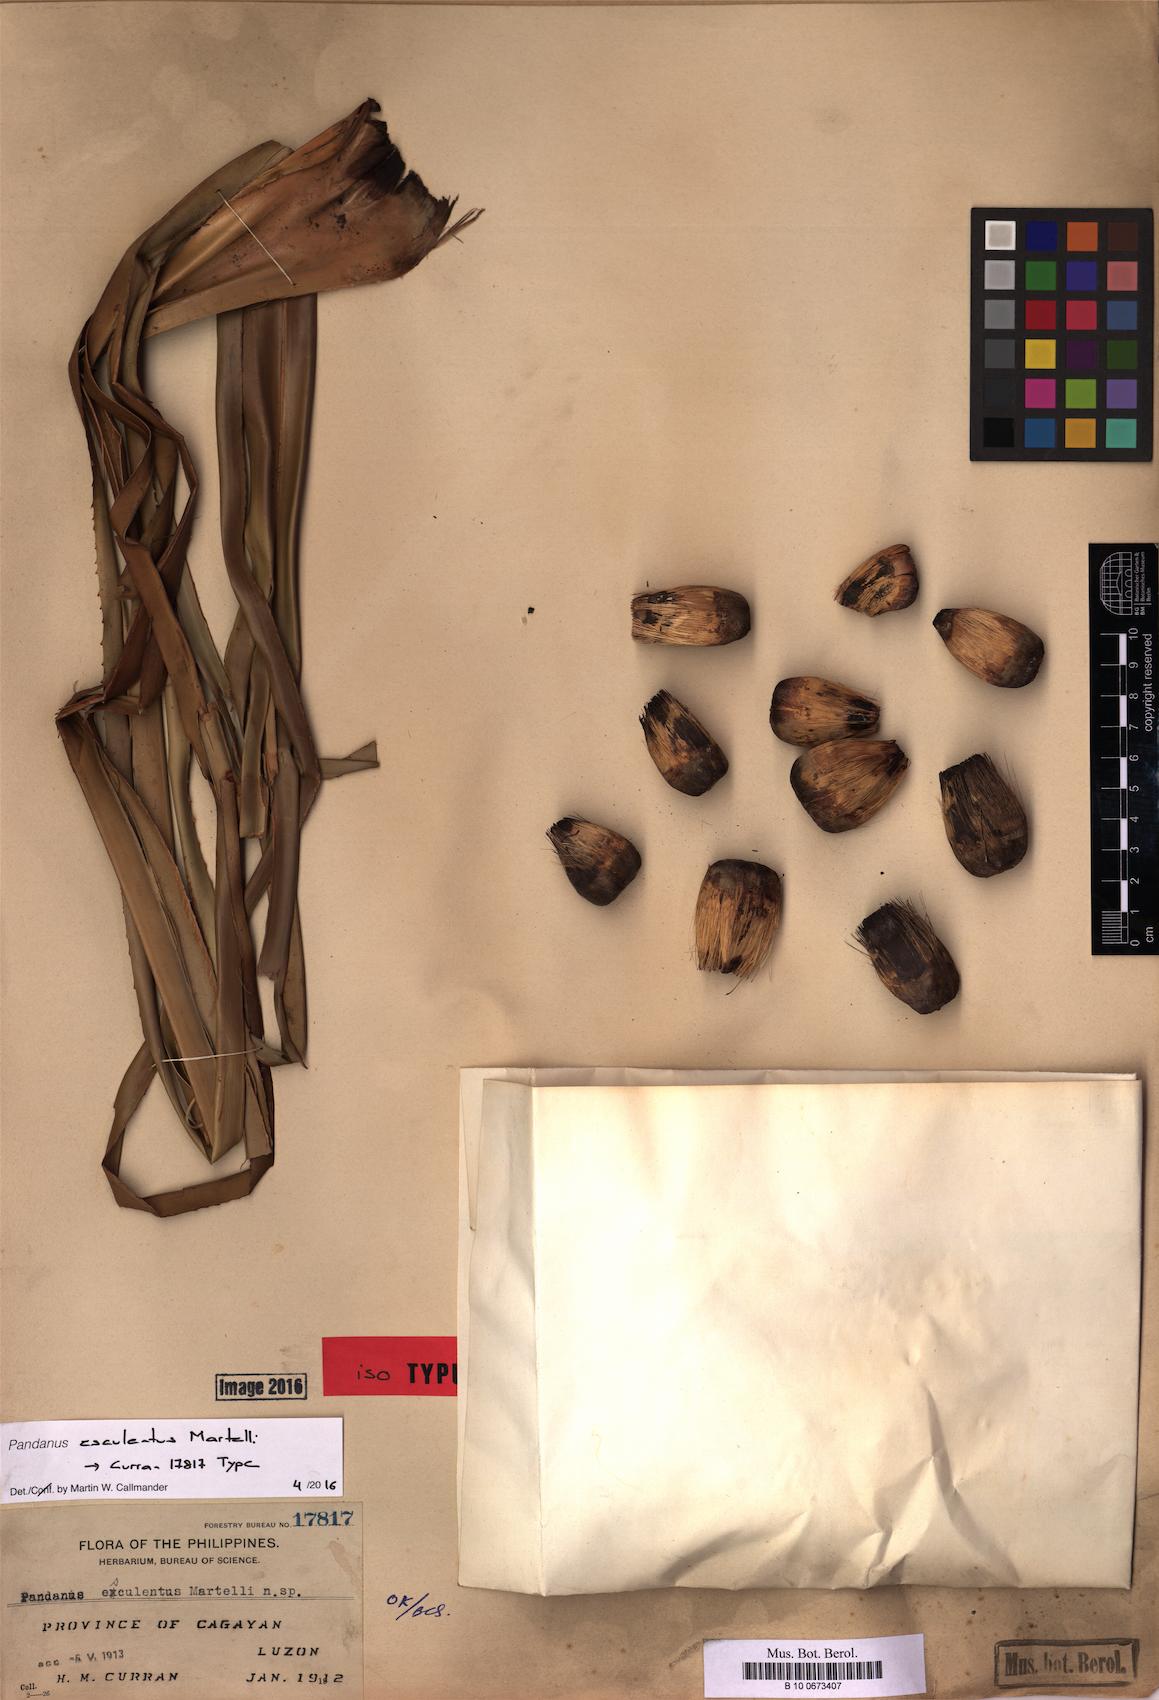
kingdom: Plantae
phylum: Tracheophyta
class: Liliopsida
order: Pandanales
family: Pandanaceae
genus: Pandanus
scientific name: Pandanus esculentus
